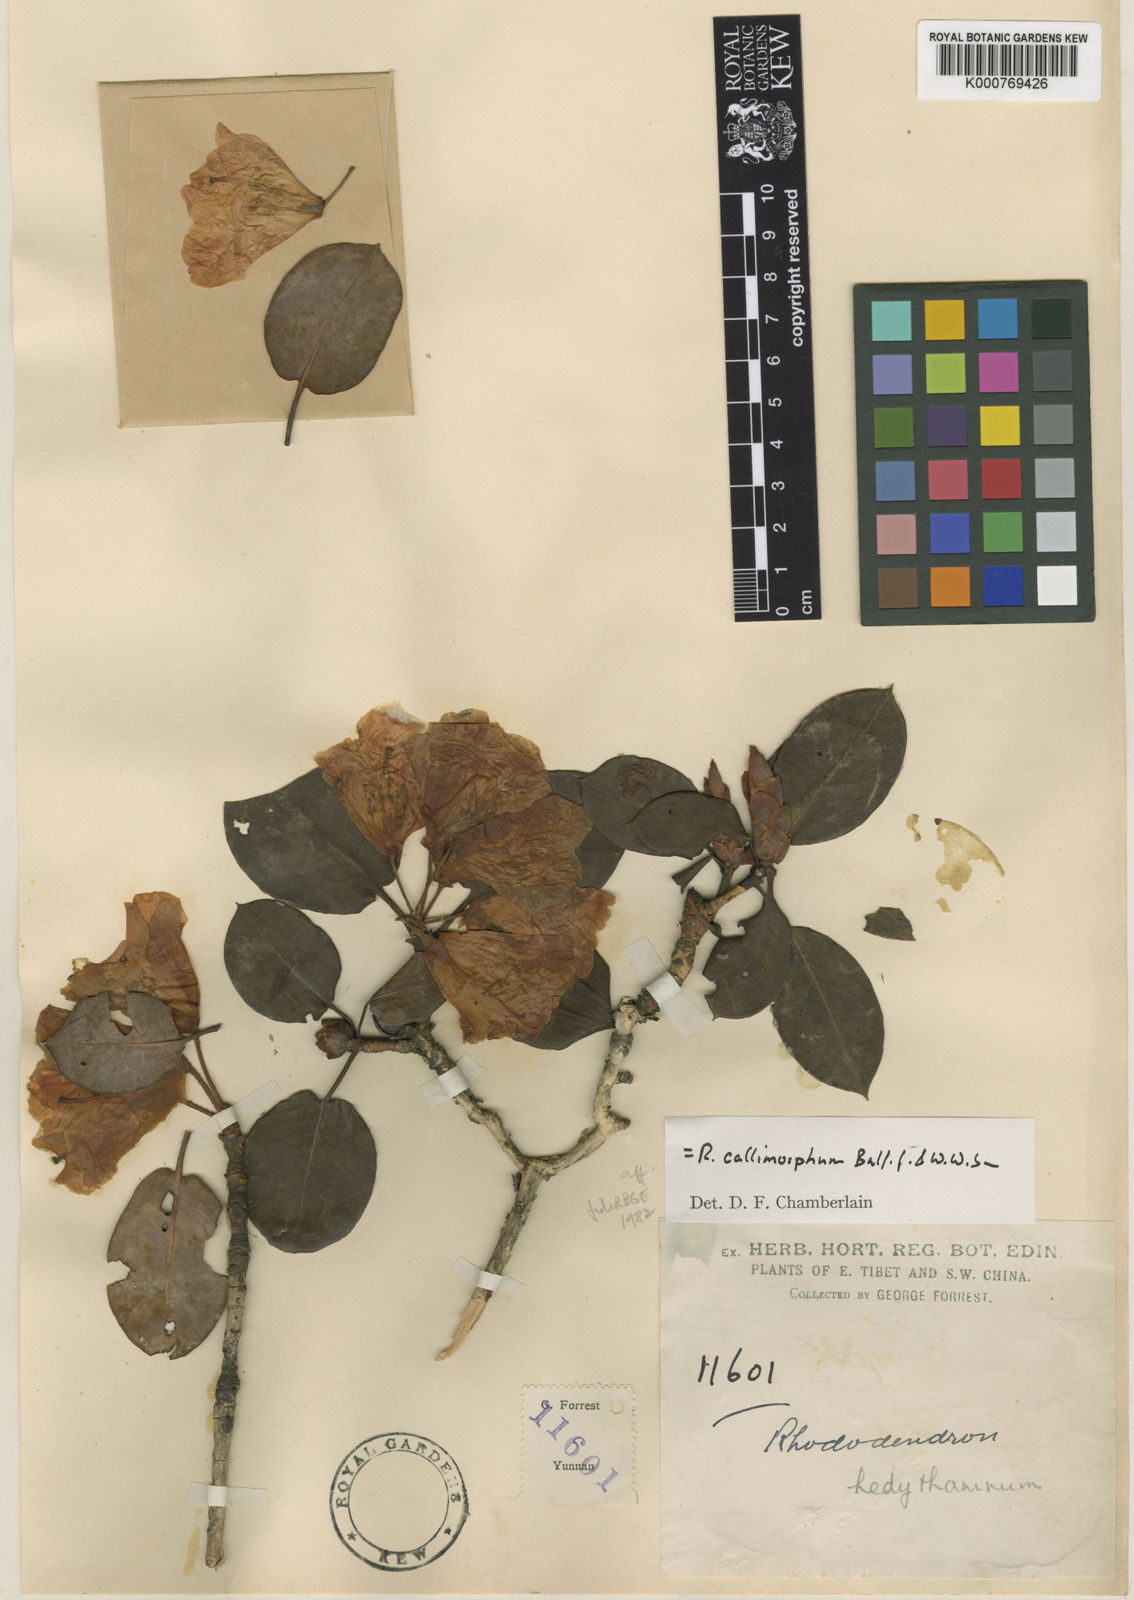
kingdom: Plantae
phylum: Tracheophyta
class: Magnoliopsida
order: Ericales
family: Ericaceae
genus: Rhododendron
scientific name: Rhododendron callimorphum
